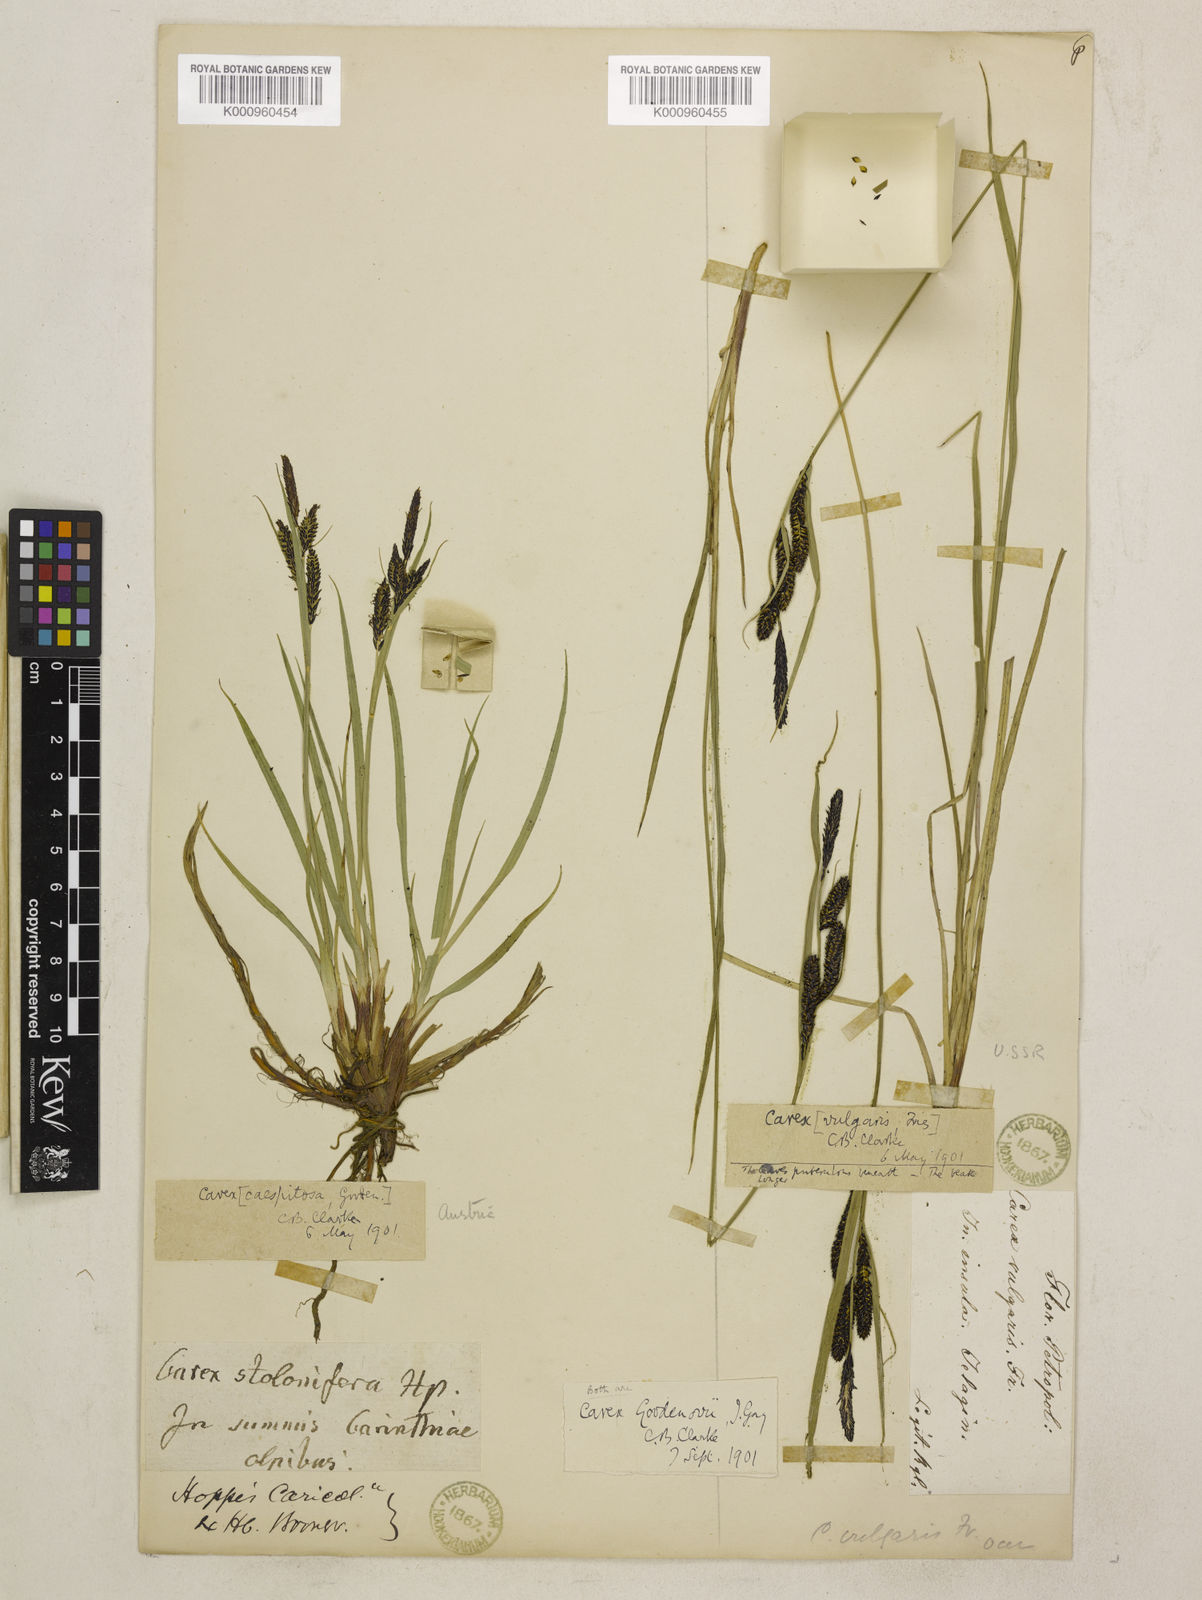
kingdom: Plantae
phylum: Tracheophyta
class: Liliopsida
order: Poales
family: Cyperaceae
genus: Carex
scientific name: Carex nigra
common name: Common sedge
